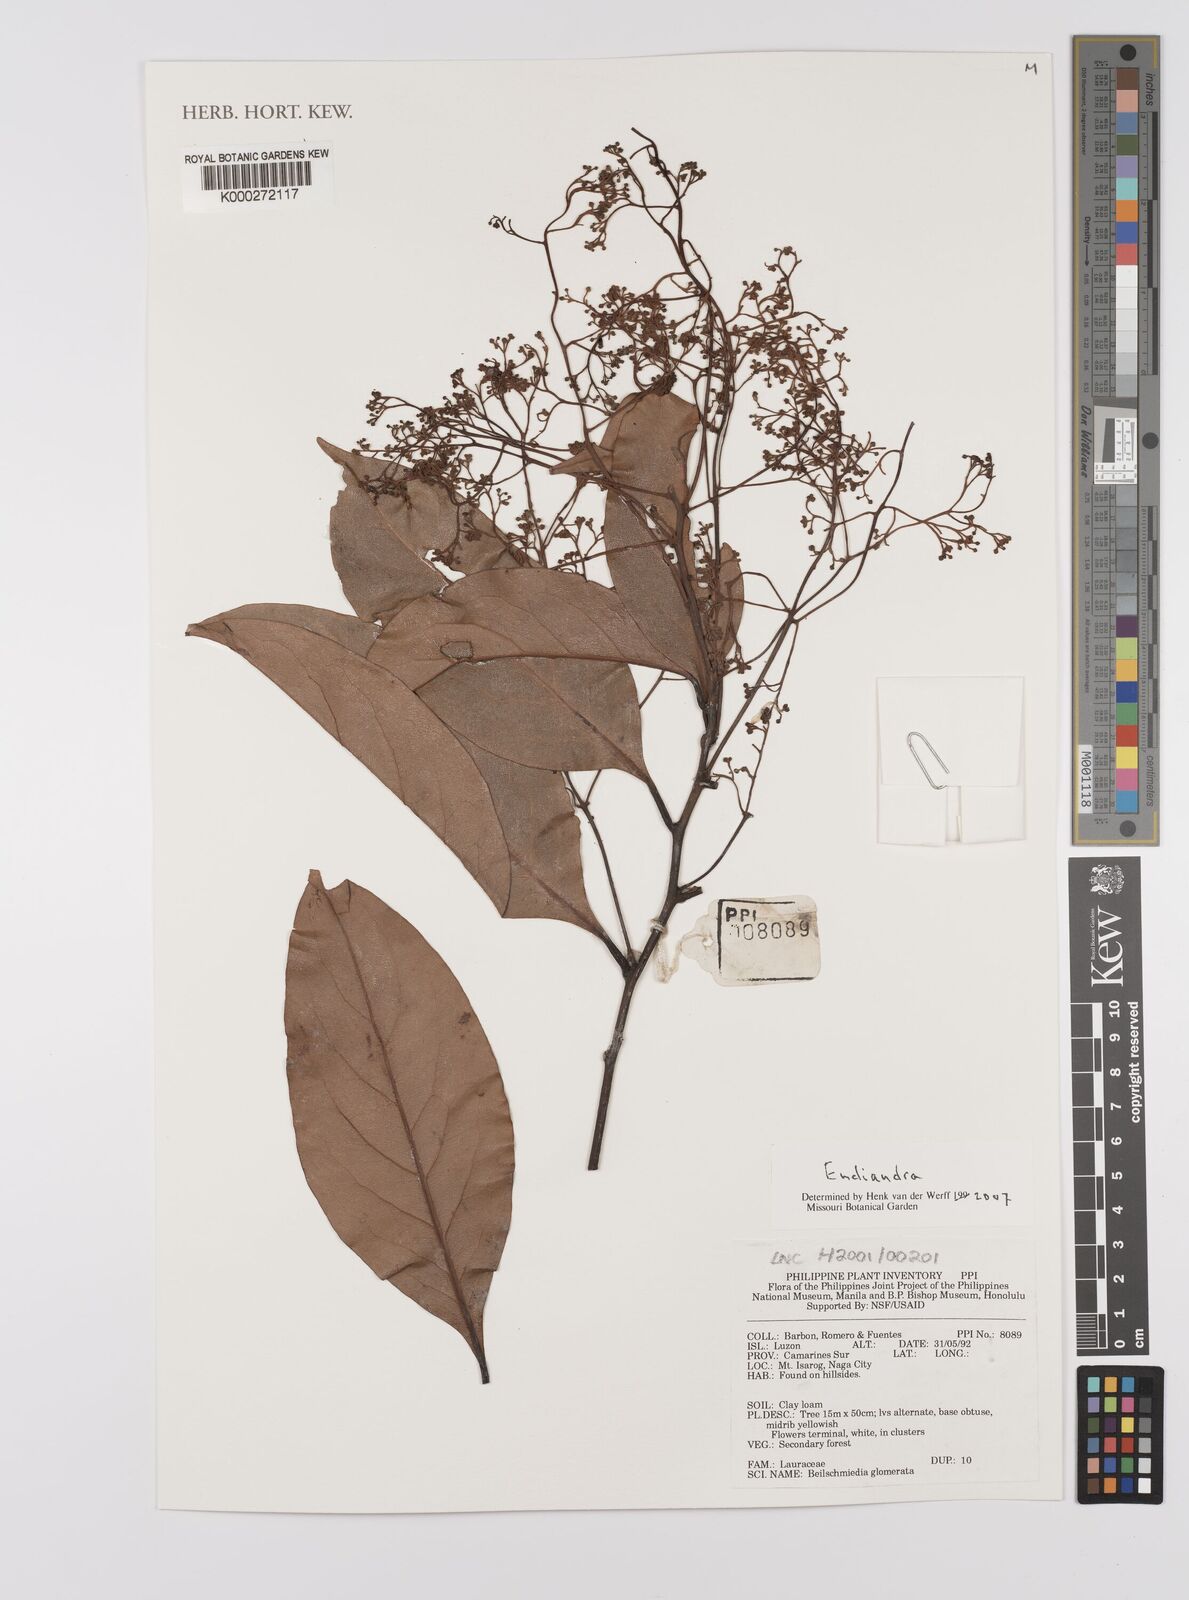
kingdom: Plantae
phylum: Tracheophyta
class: Magnoliopsida
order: Laurales
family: Lauraceae
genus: Endiandra
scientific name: Endiandra
